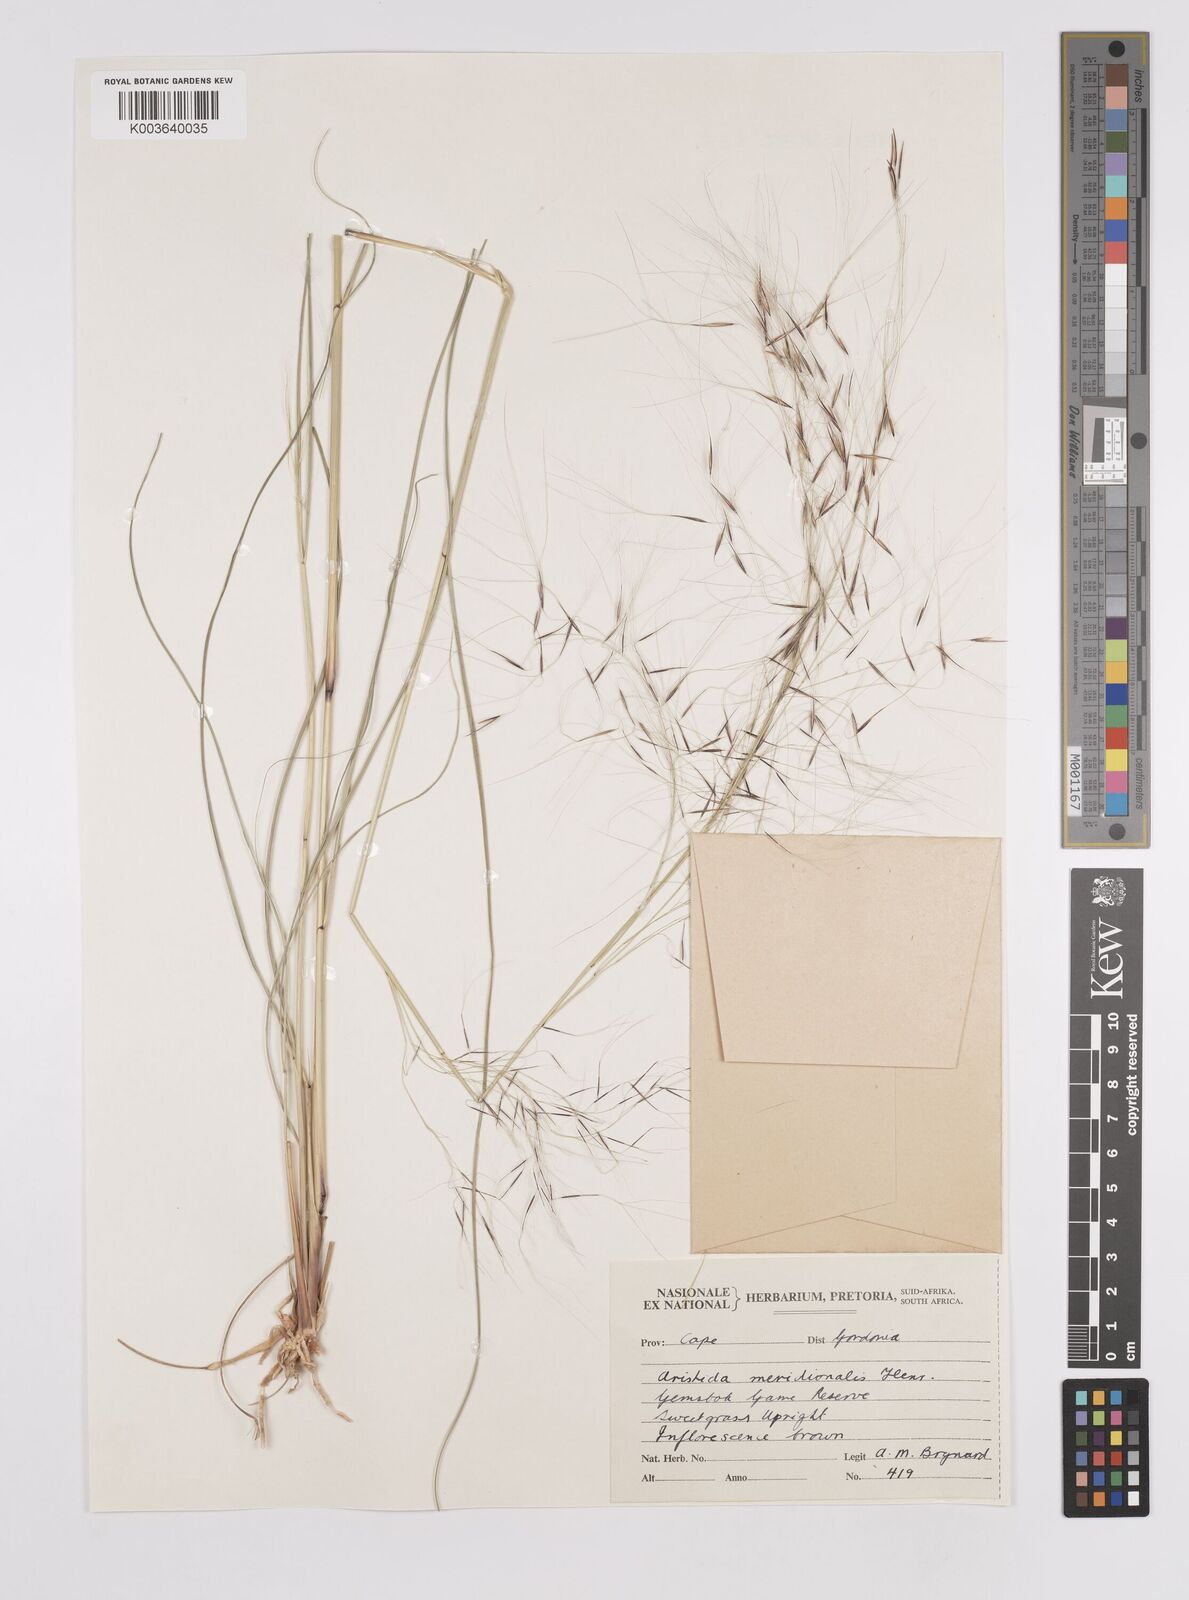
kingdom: Plantae
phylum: Tracheophyta
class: Liliopsida
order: Poales
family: Poaceae
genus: Aristida
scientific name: Aristida meridionalis
